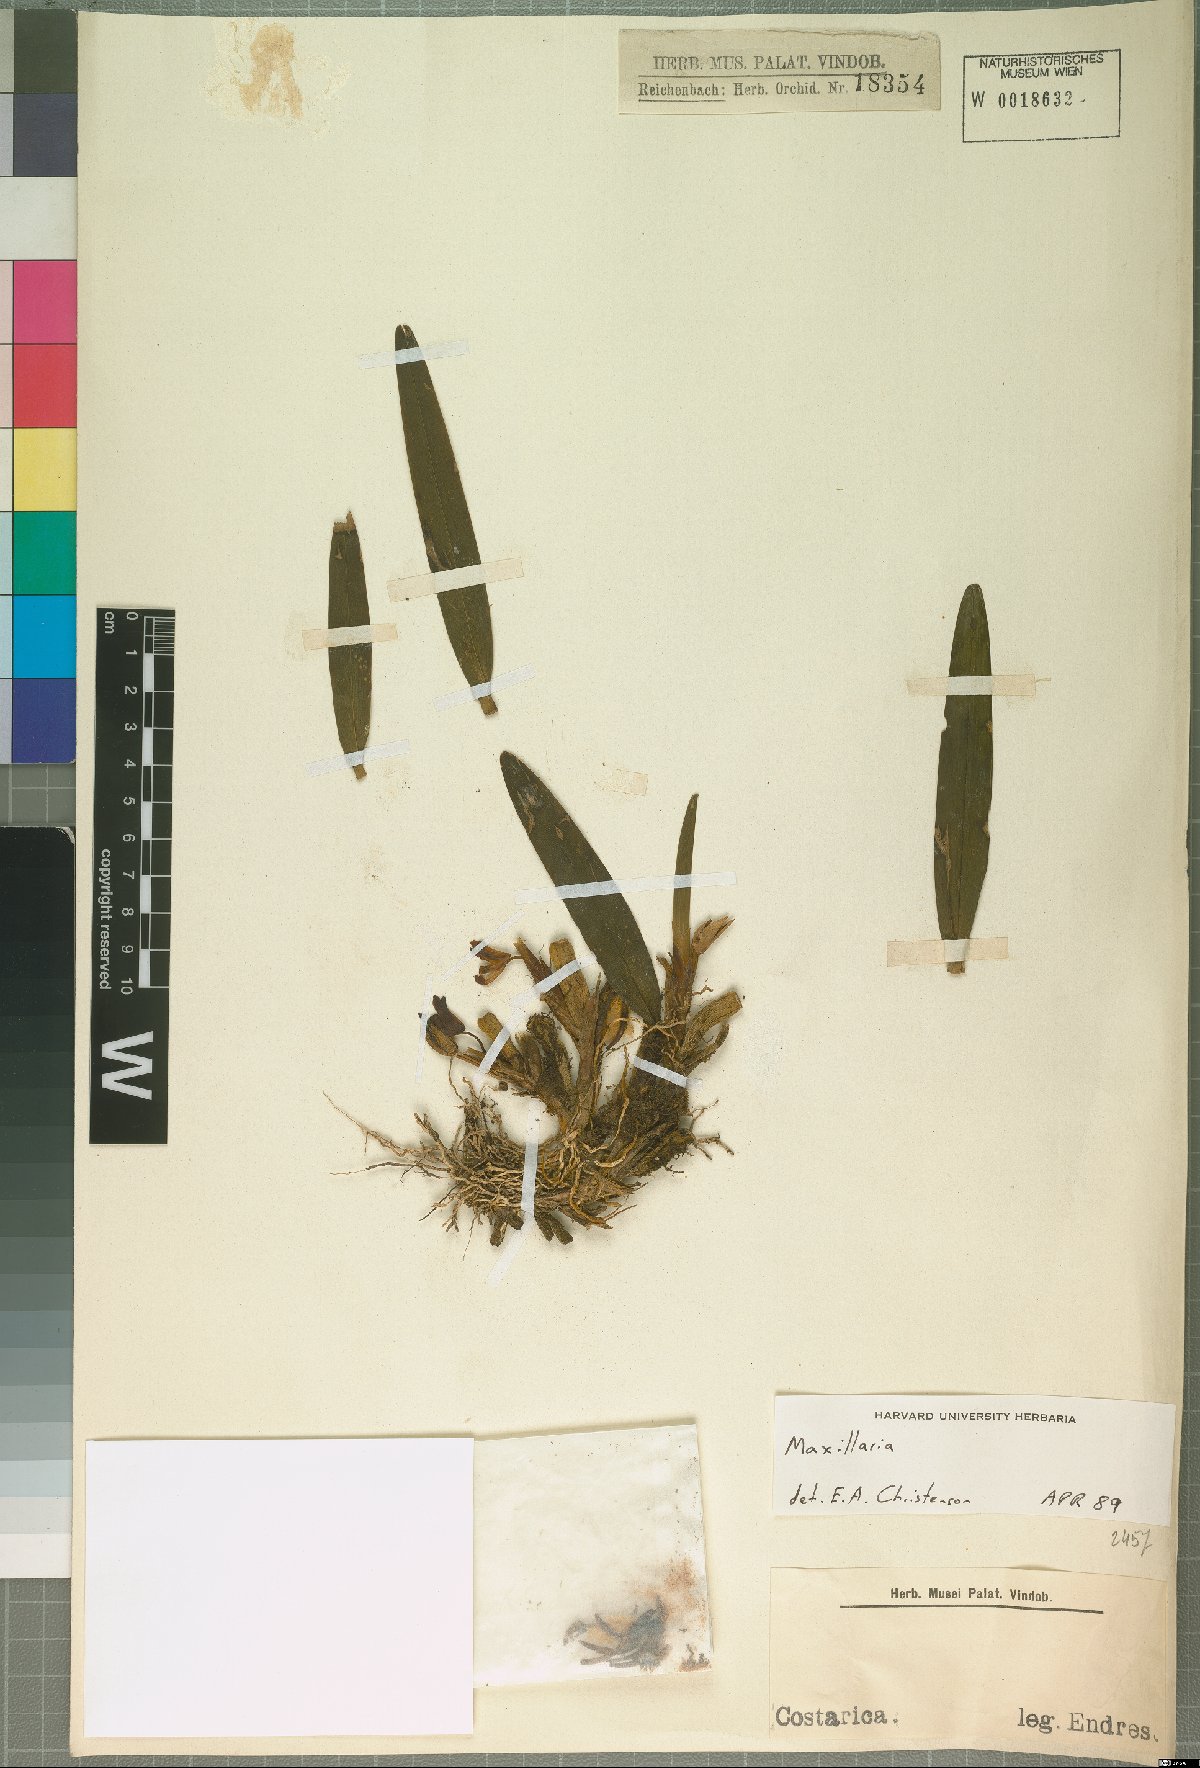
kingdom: Plantae
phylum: Tracheophyta
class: Liliopsida
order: Asparagales
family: Orchidaceae
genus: Maxillaria
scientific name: Maxillaria
